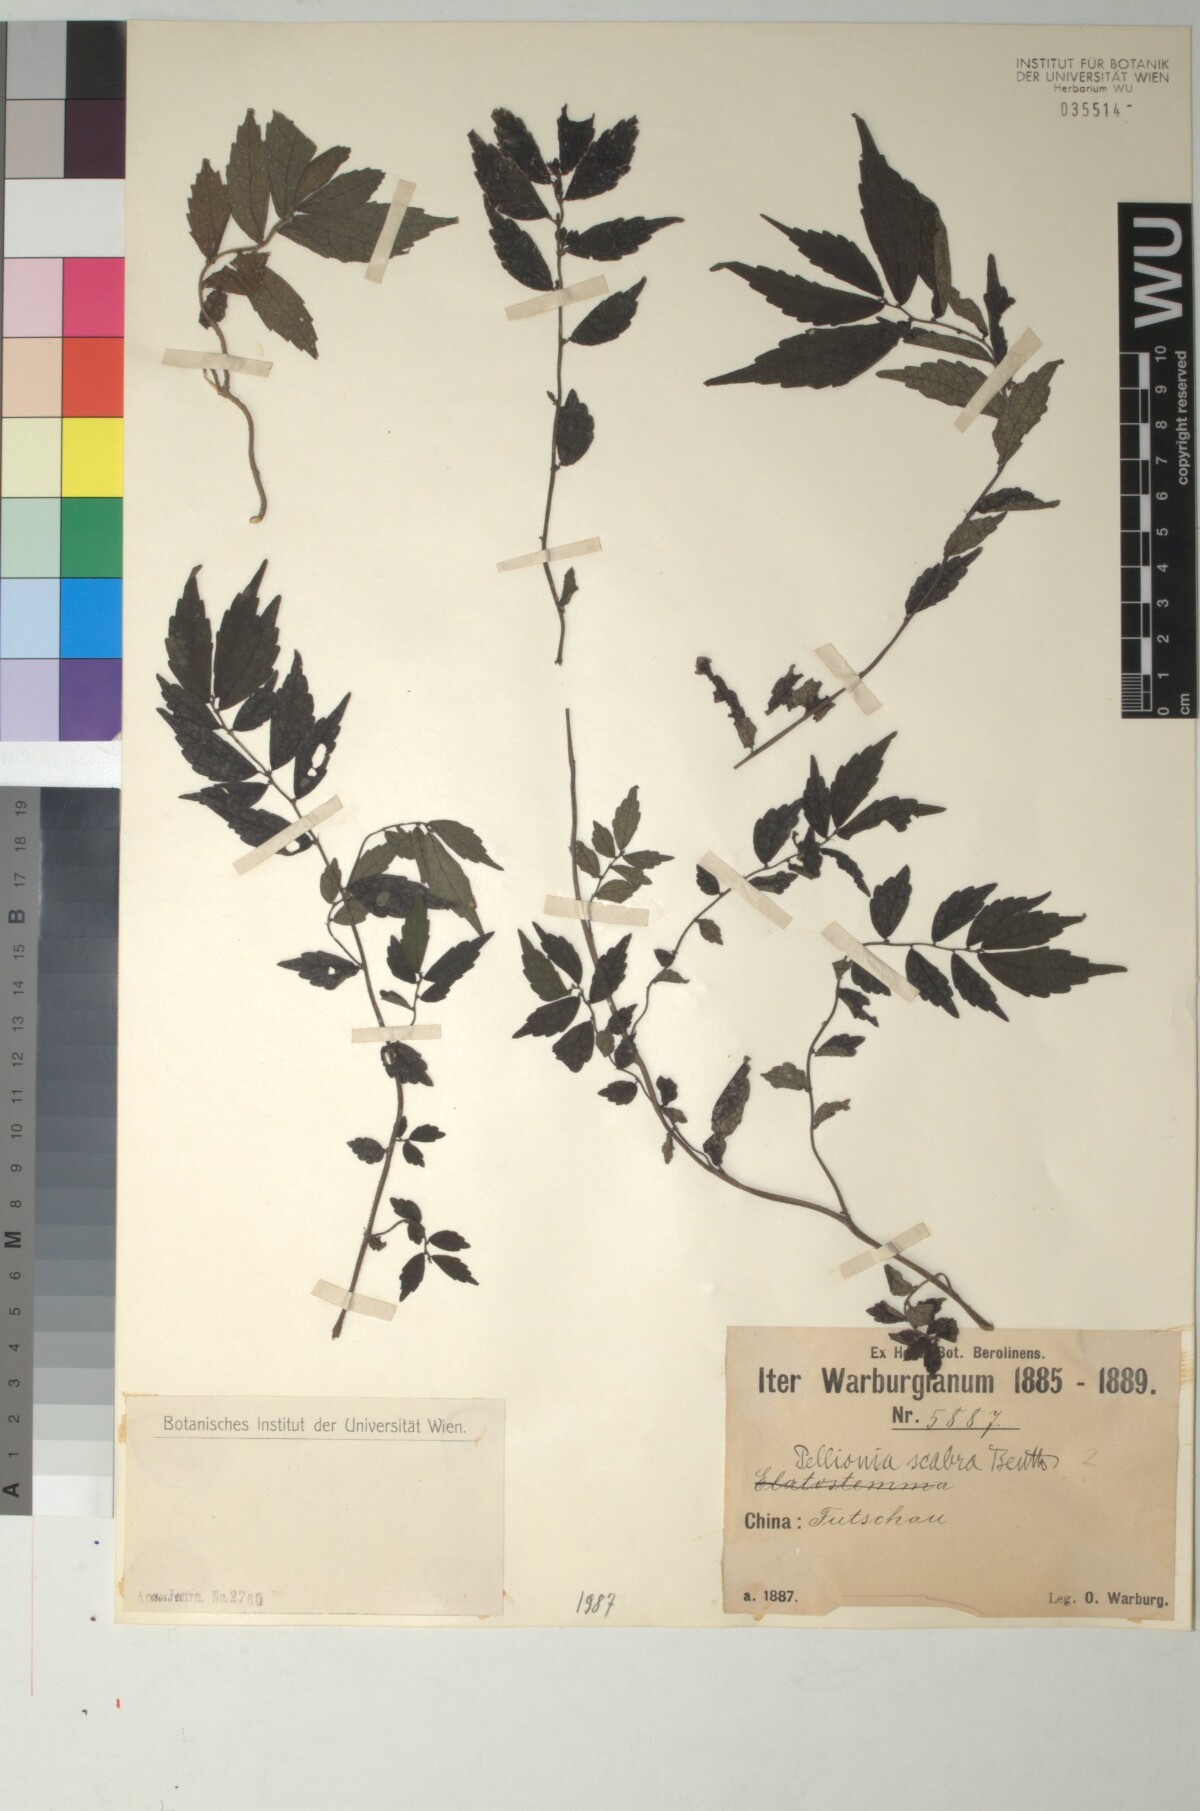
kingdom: Plantae
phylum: Tracheophyta
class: Magnoliopsida
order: Rosales
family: Urticaceae
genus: Elatostema
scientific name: Elatostema scabrum
